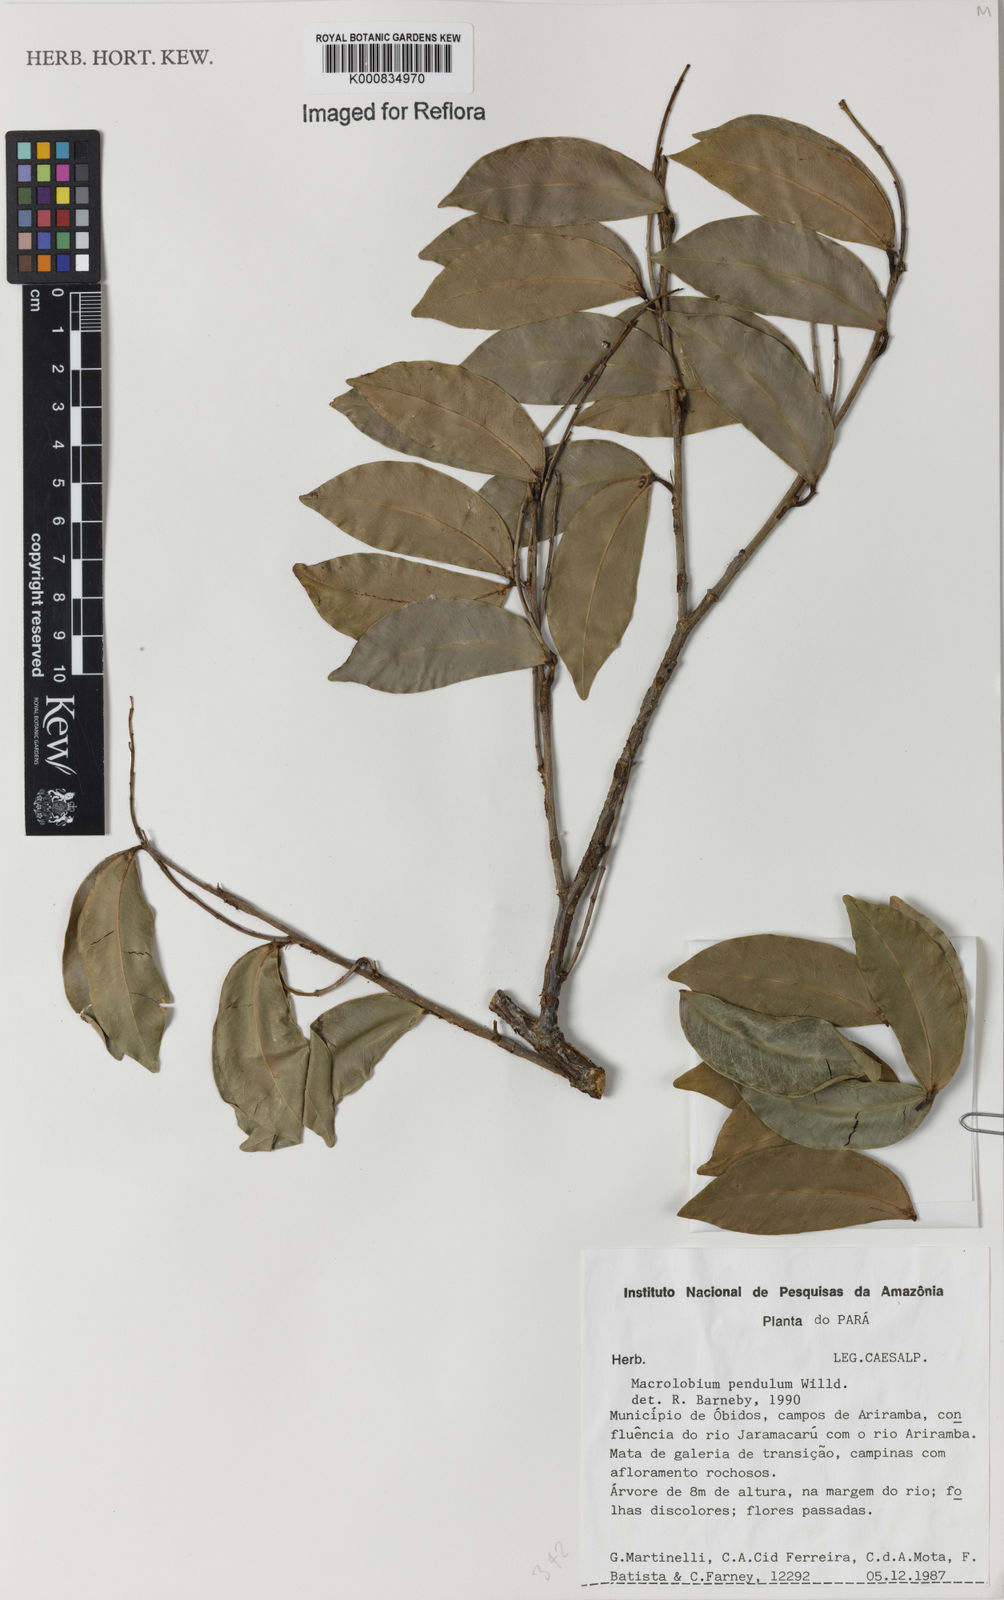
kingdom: Plantae
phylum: Tracheophyta
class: Magnoliopsida
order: Fabales
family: Fabaceae
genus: Macrolobium
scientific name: Macrolobium pendulum
